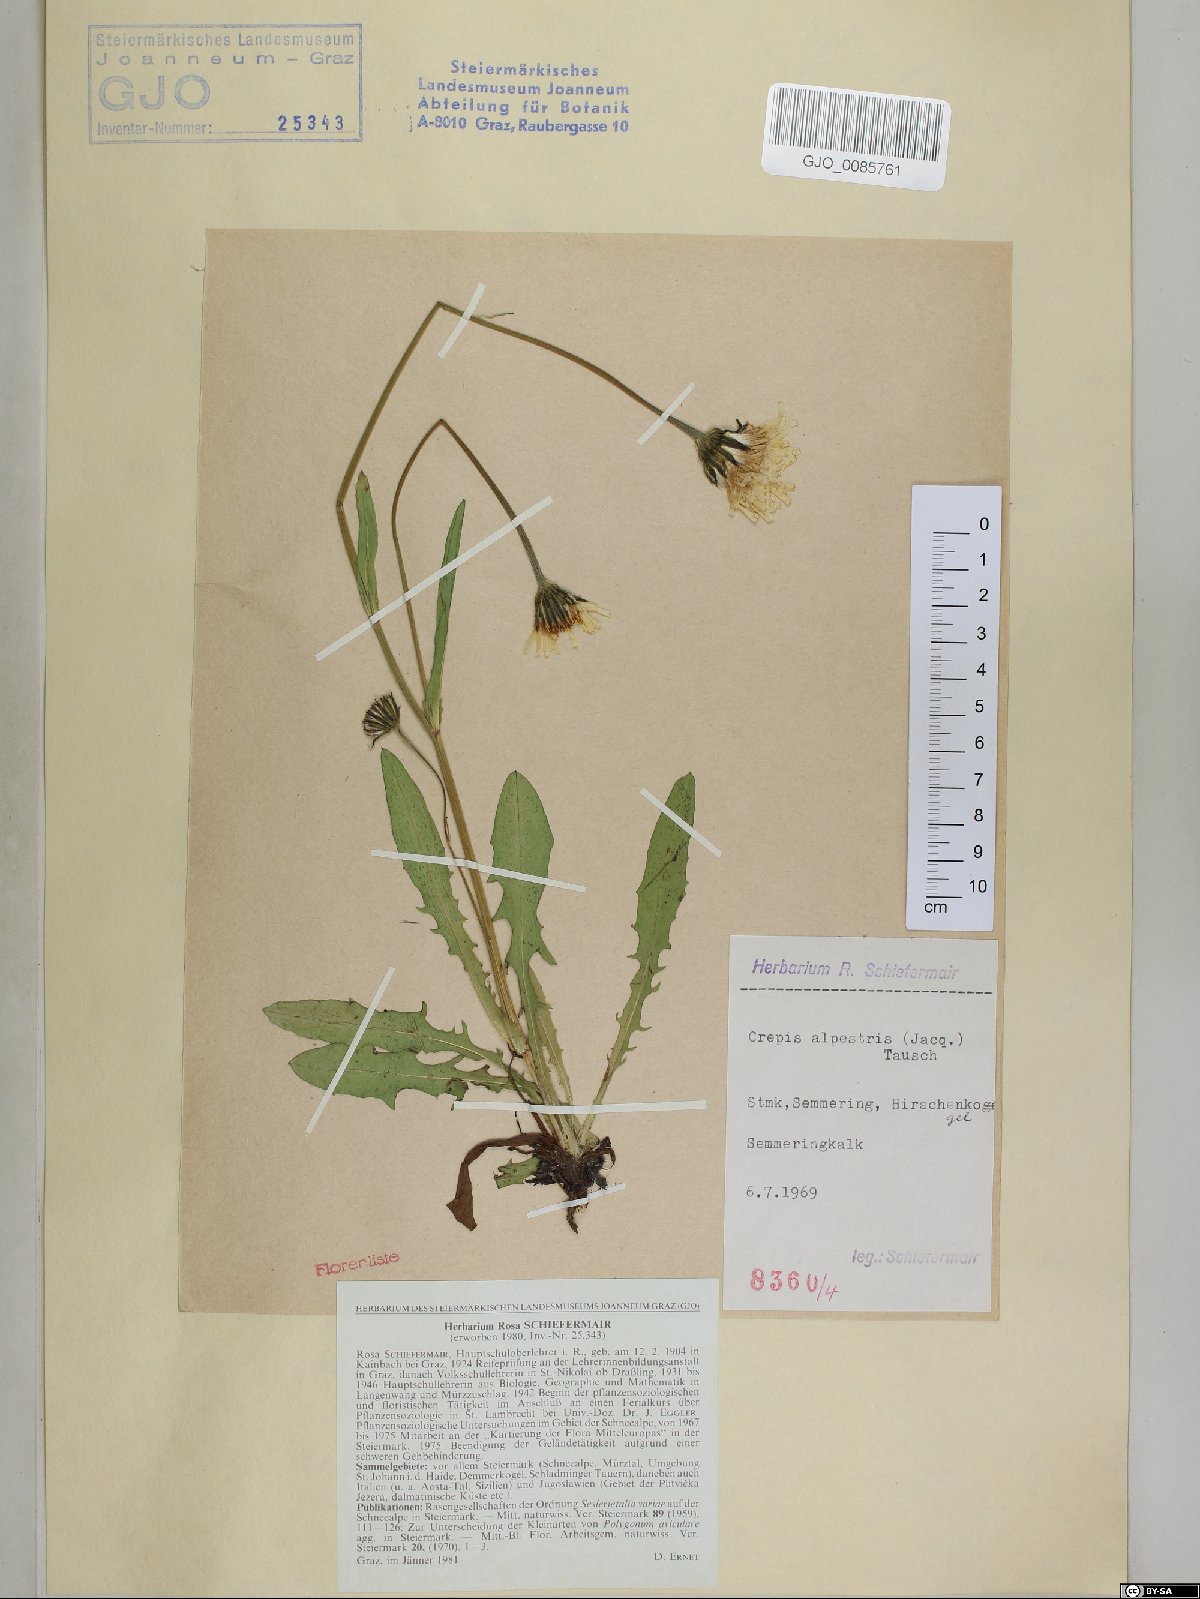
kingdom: Plantae
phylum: Tracheophyta
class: Magnoliopsida
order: Asterales
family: Asteraceae
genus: Crepis
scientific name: Crepis alpestris
